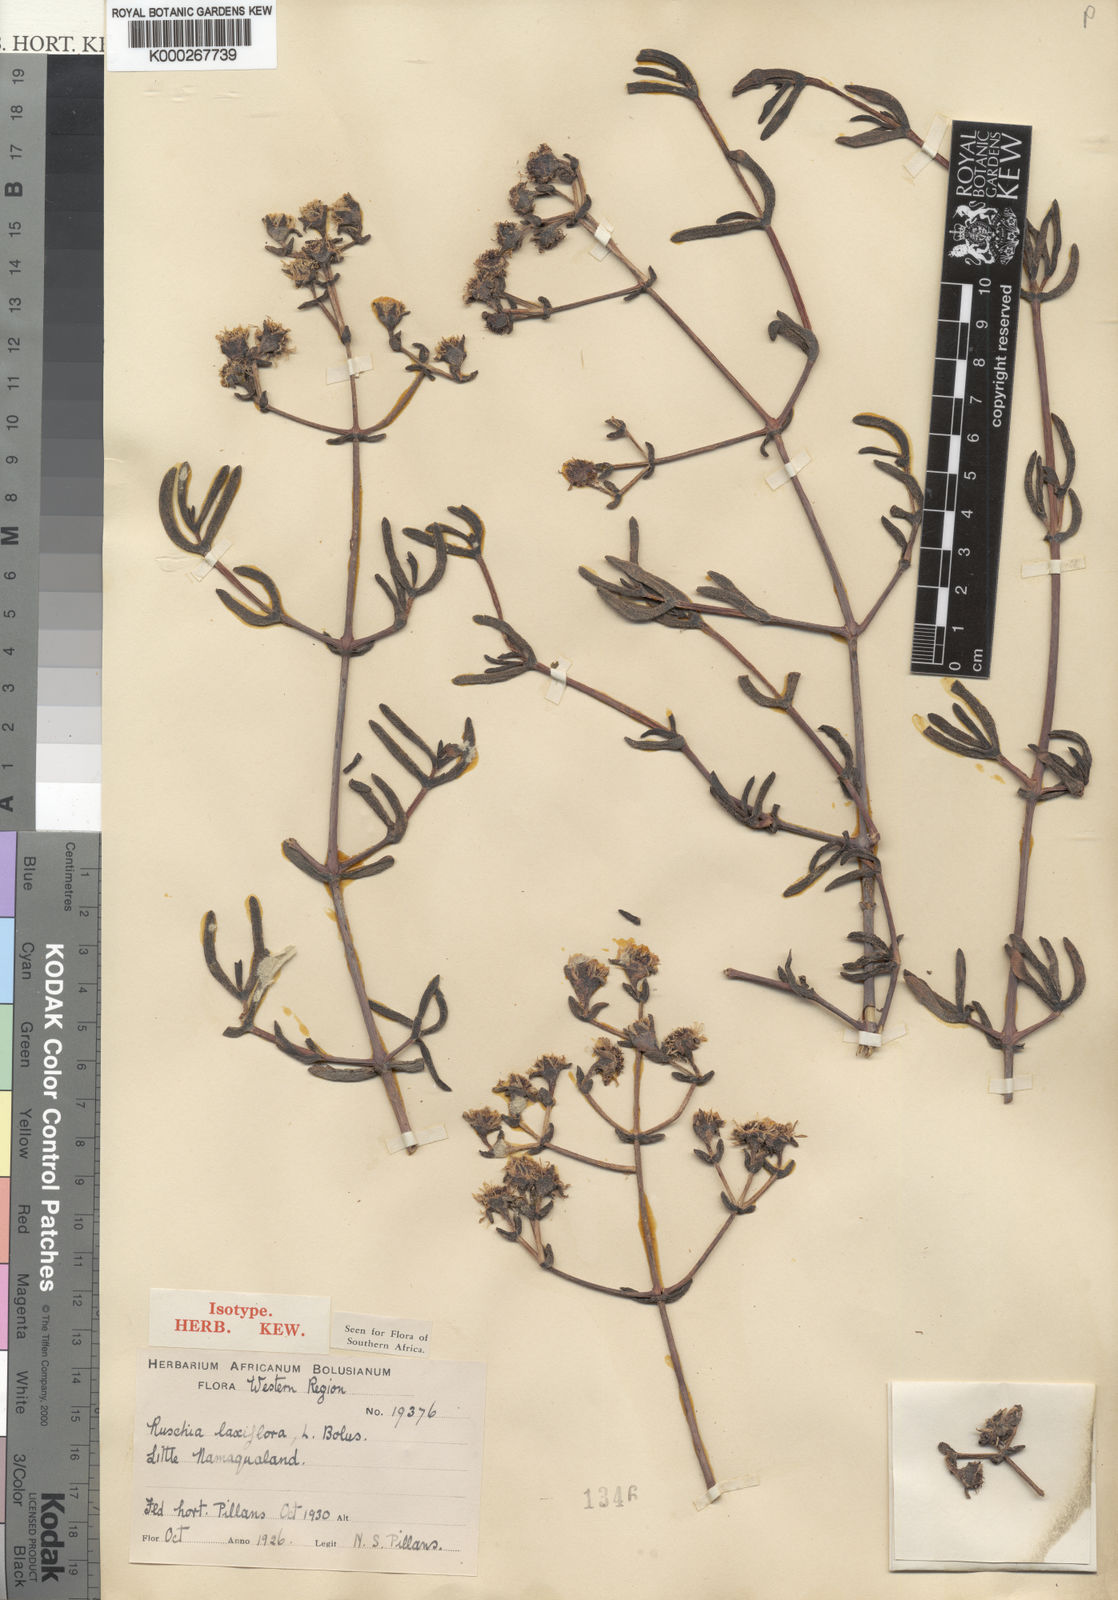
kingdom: Plantae
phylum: Tracheophyta
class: Magnoliopsida
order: Caryophyllales
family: Aizoaceae
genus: Ruschia
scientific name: Ruschia laxiflora
